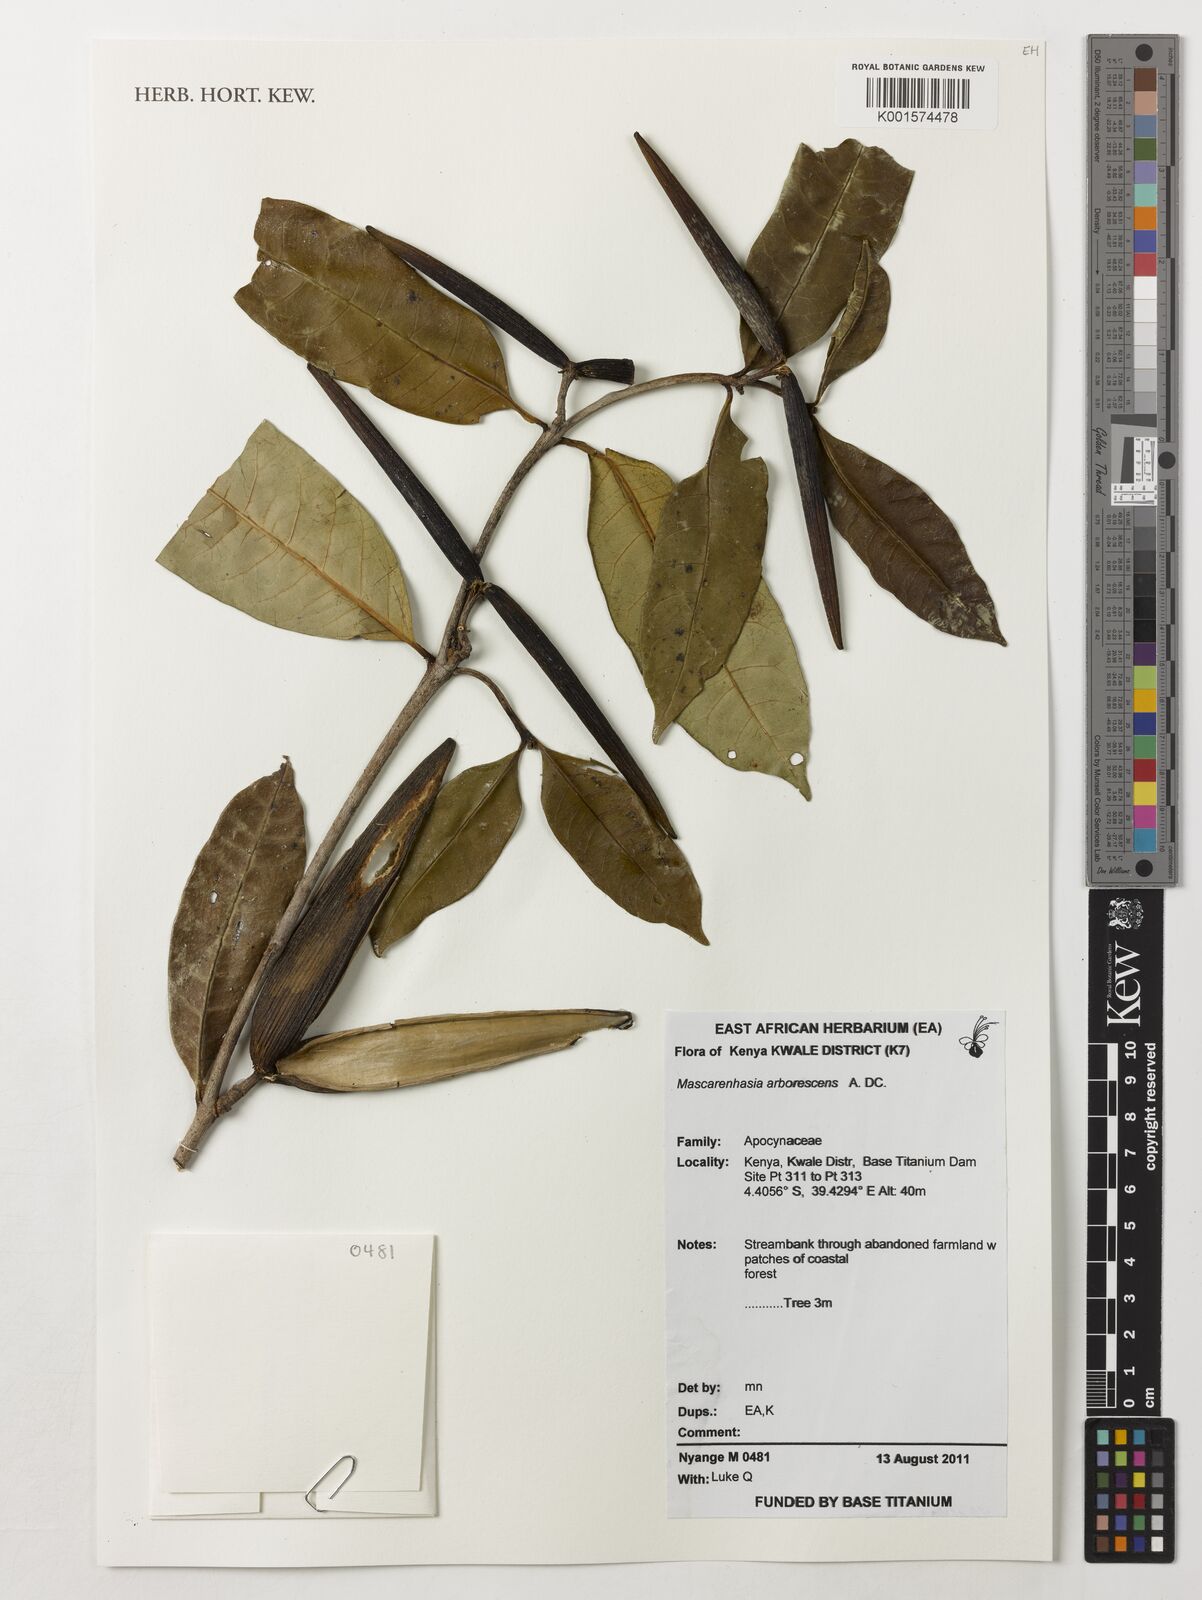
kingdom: Plantae
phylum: Tracheophyta
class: Magnoliopsida
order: Gentianales
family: Apocynaceae
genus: Mascarenhasia
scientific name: Mascarenhasia arborescens
